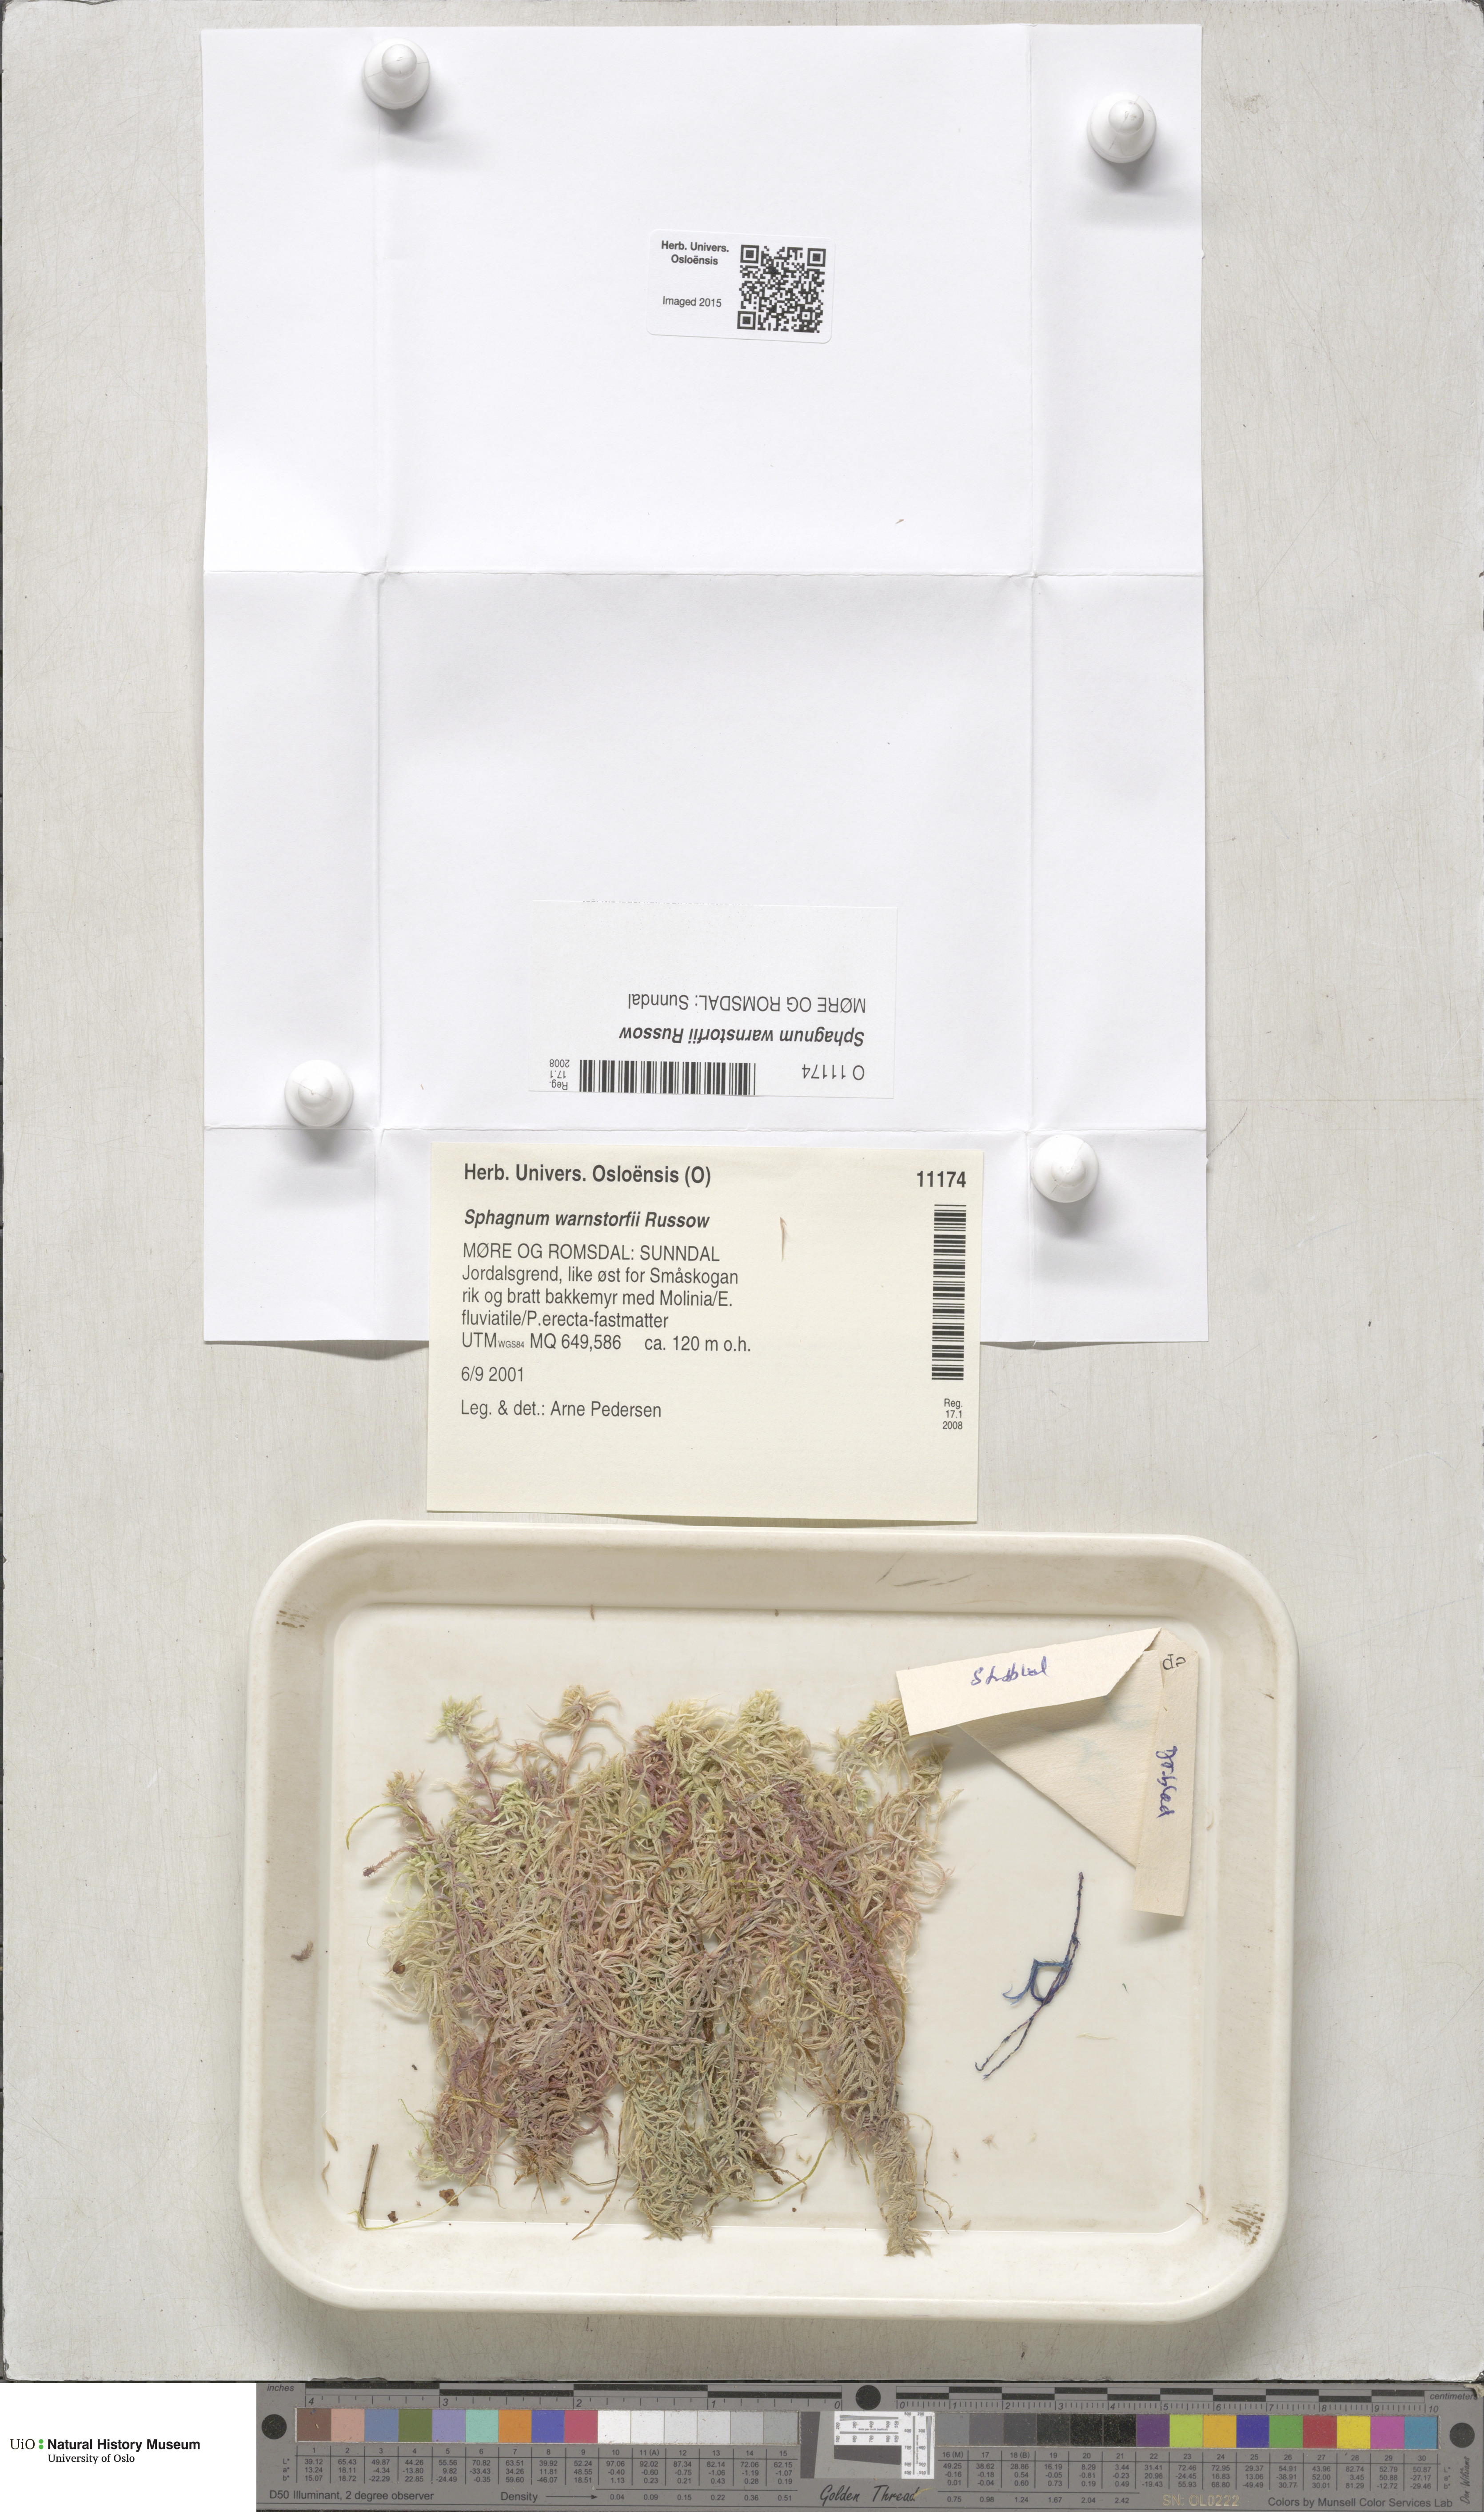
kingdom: Plantae
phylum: Bryophyta
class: Sphagnopsida
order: Sphagnales
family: Sphagnaceae
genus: Sphagnum
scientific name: Sphagnum warnstorfii
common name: Warnstorf's peat moss
